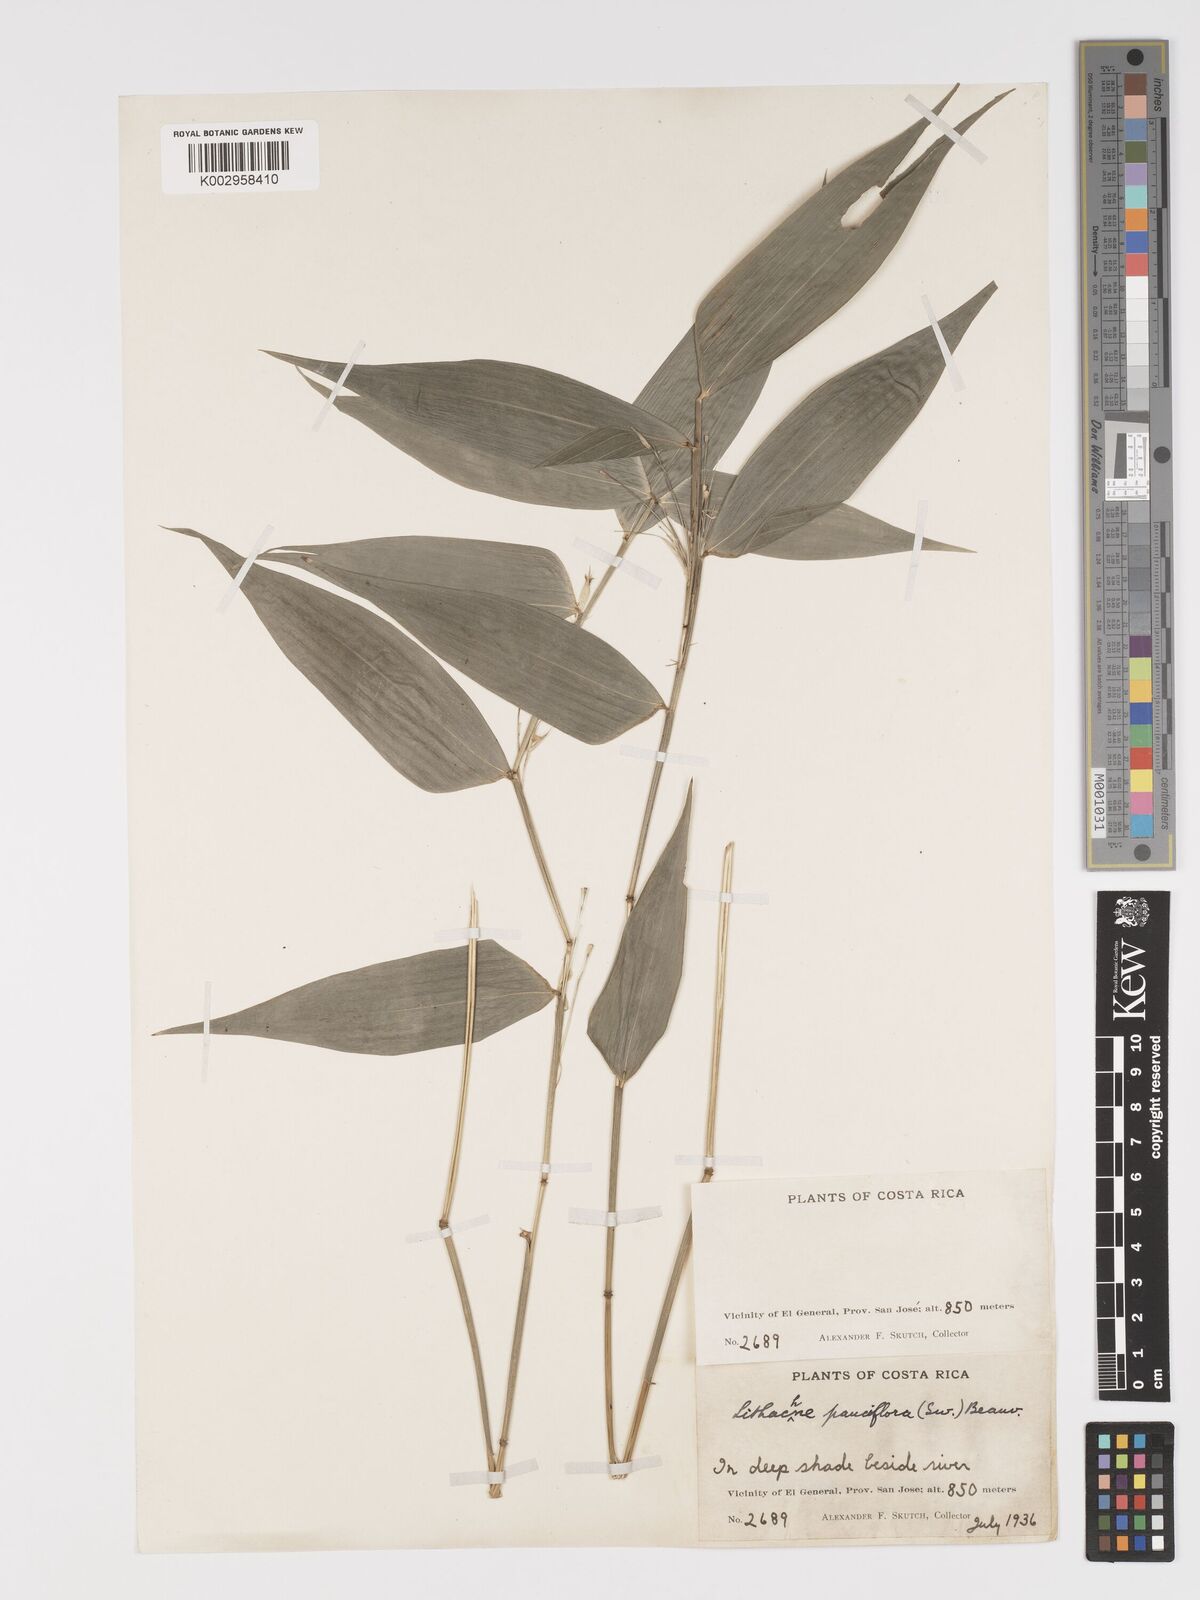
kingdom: Plantae
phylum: Tracheophyta
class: Liliopsida
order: Poales
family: Poaceae
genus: Lithachne
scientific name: Lithachne pauciflora
